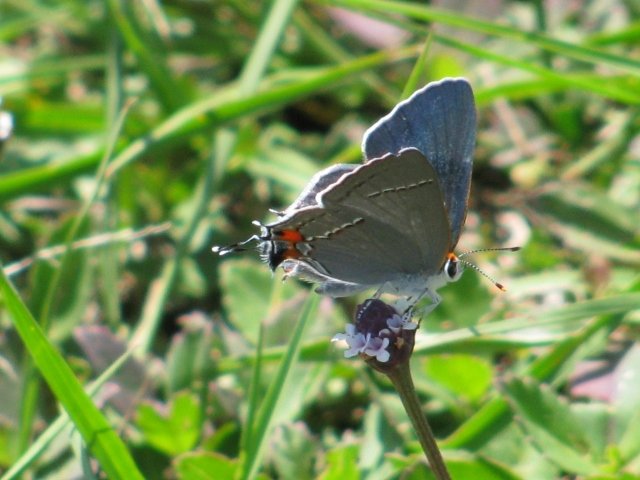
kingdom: Animalia
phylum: Arthropoda
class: Insecta
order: Lepidoptera
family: Lycaenidae
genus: Strymon
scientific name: Strymon melinus
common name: Gray Hairstreak
